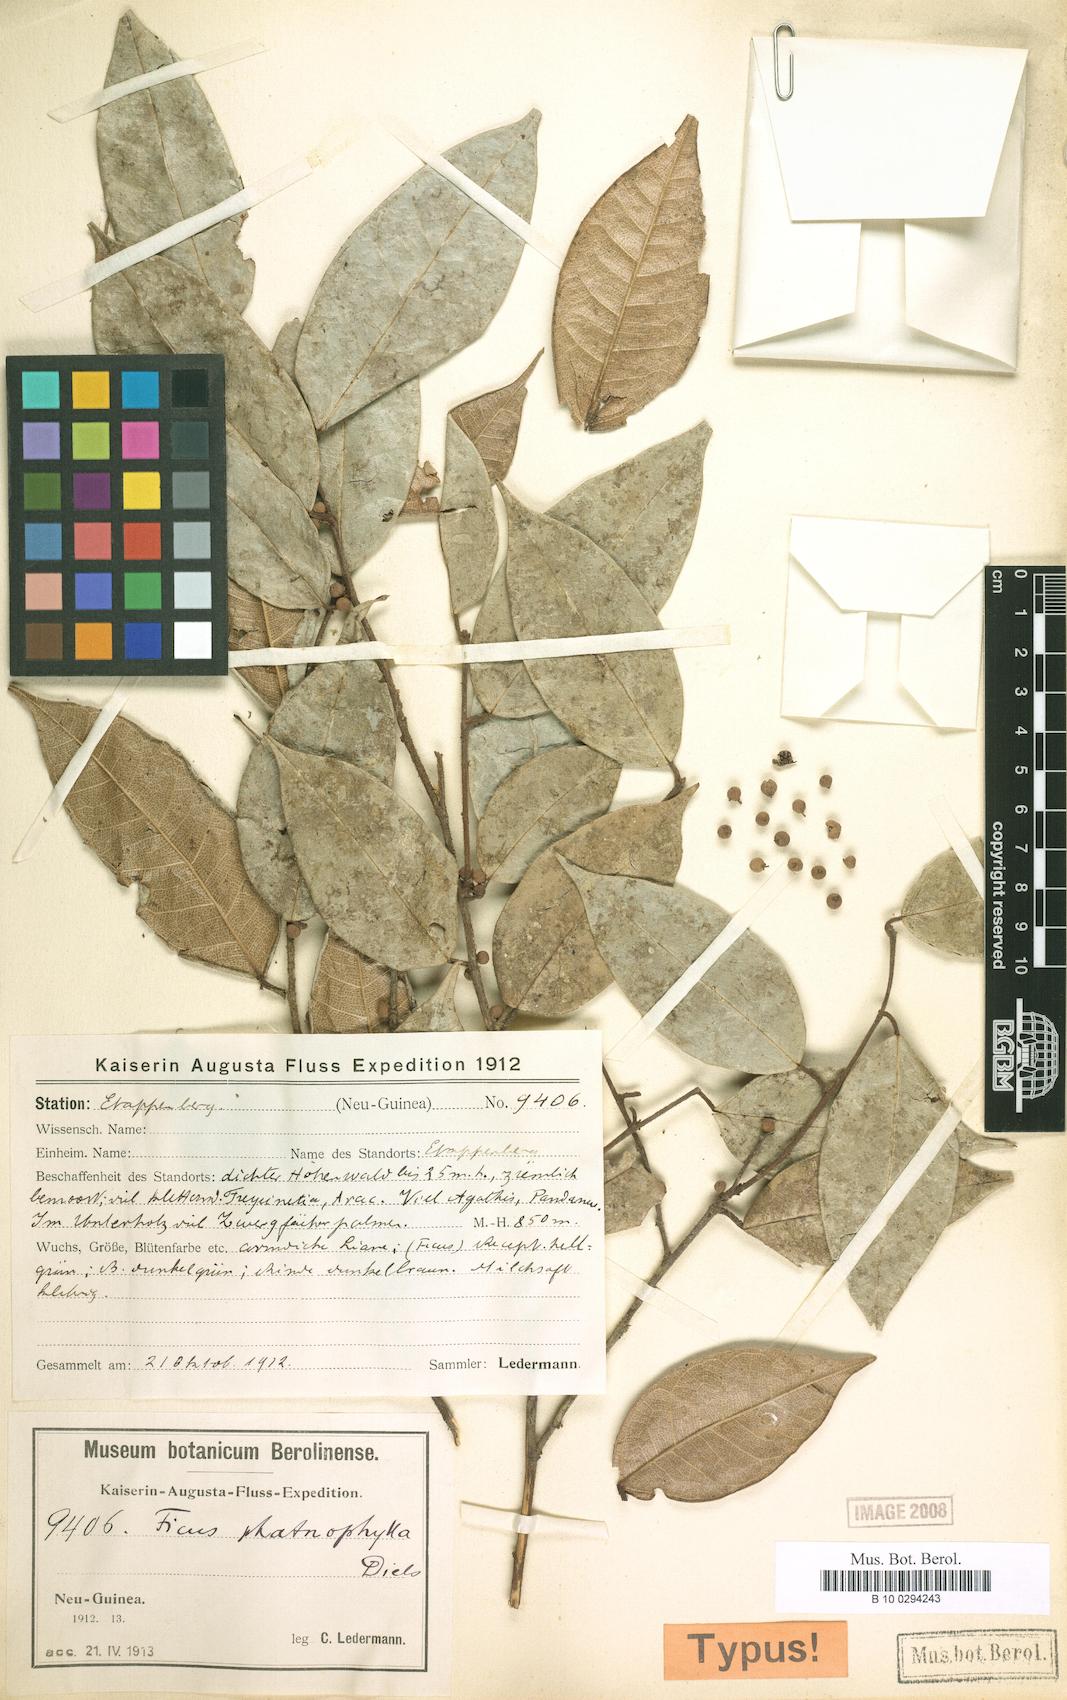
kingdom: Plantae
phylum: Tracheophyta
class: Magnoliopsida
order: Rosales
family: Moraceae
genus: Ficus
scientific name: Ficus phatnophylla
